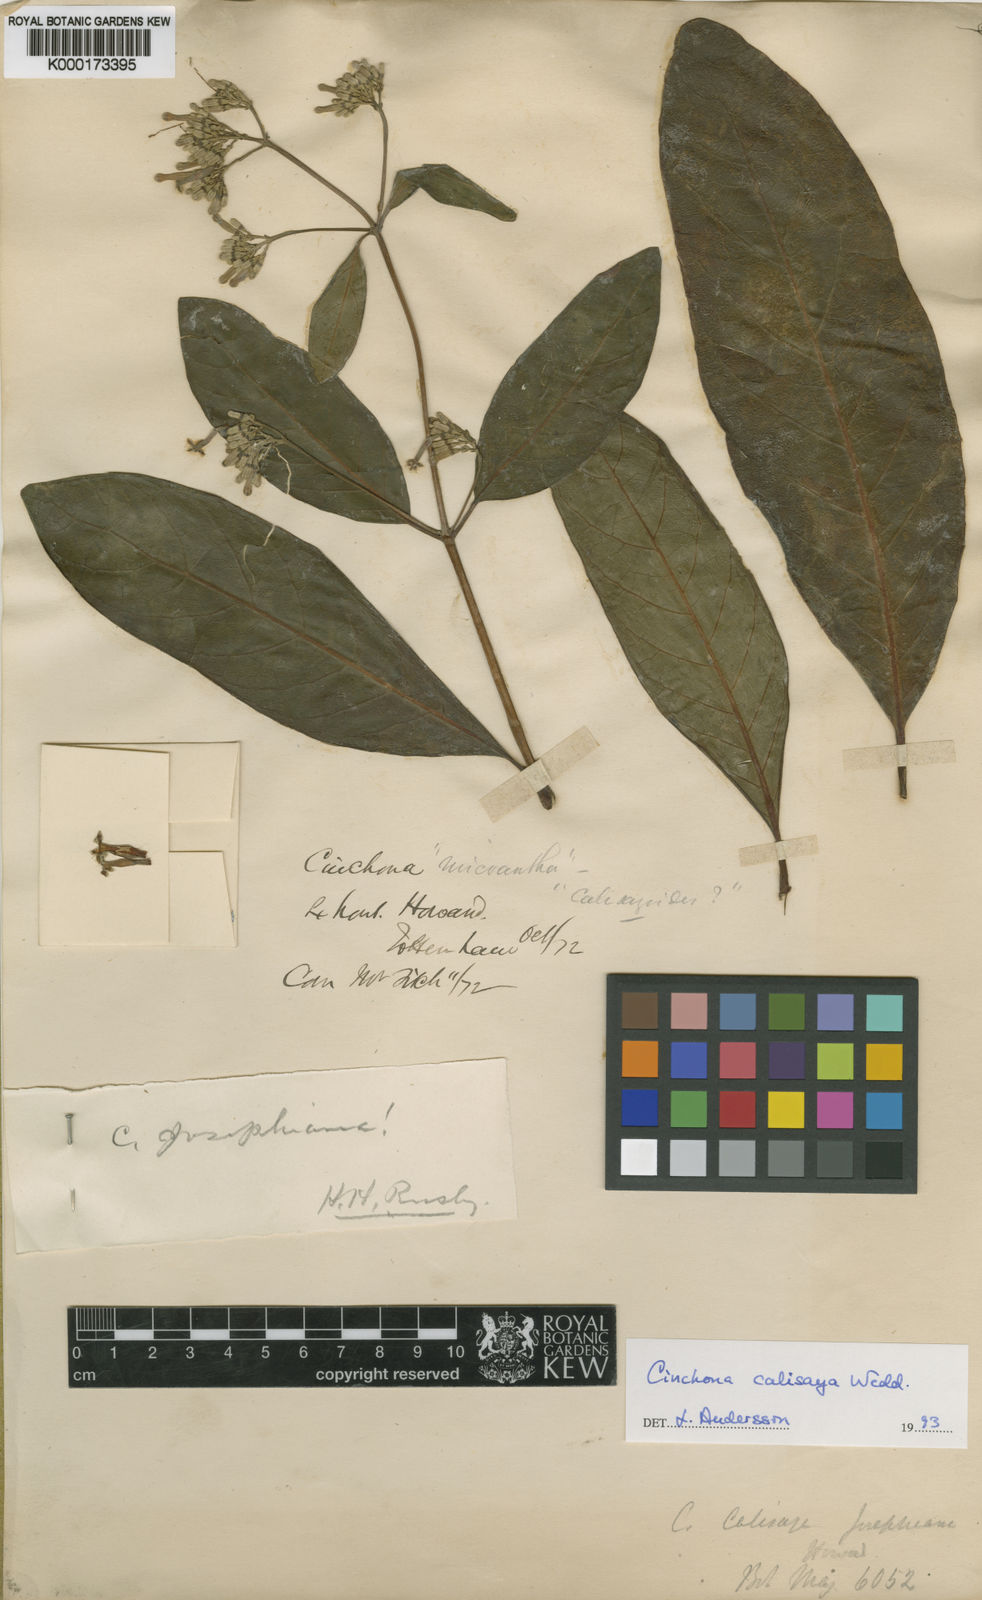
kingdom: Plantae
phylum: Tracheophyta
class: Magnoliopsida
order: Gentianales
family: Rubiaceae
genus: Cinchona
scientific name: Cinchona calisaya
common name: Ledgerbark
